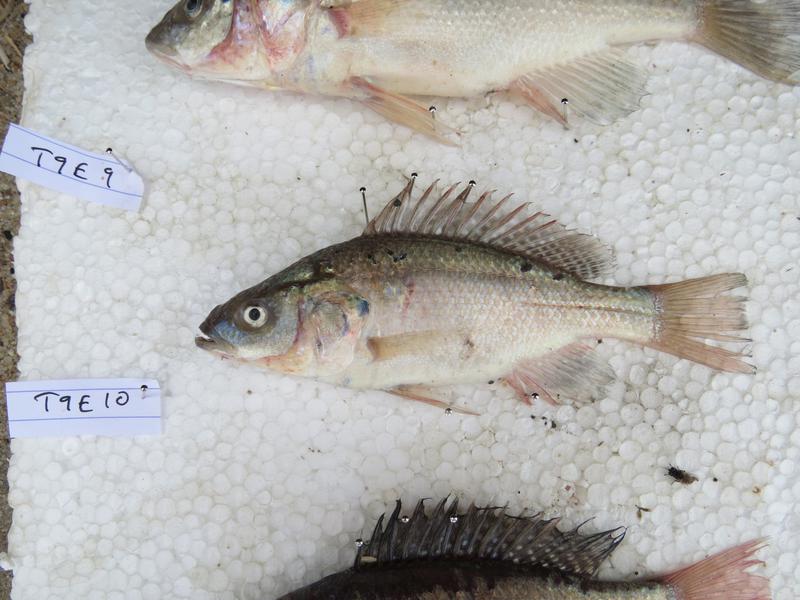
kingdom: Animalia
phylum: Chordata
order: Perciformes
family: Cichlidae
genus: Oreochromis
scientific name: Oreochromis amphimelas
